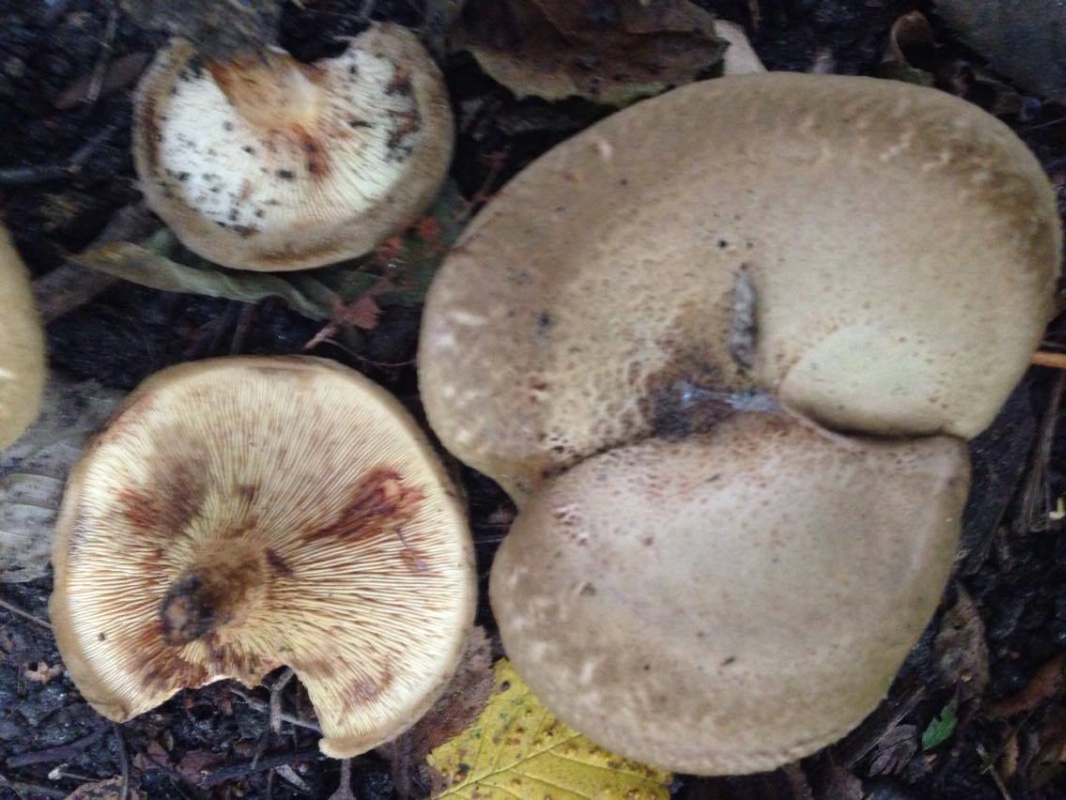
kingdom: Fungi
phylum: Basidiomycota
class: Agaricomycetes
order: Boletales
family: Paxillaceae
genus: Paxillus
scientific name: Paxillus
